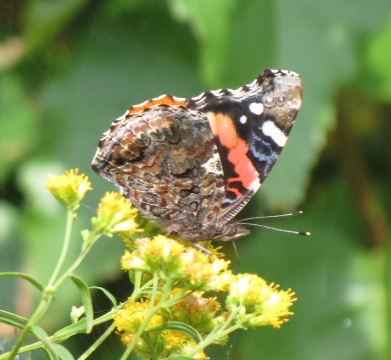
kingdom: Animalia
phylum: Arthropoda
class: Insecta
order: Lepidoptera
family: Nymphalidae
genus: Vanessa
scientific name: Vanessa atalanta
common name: Red Admiral
